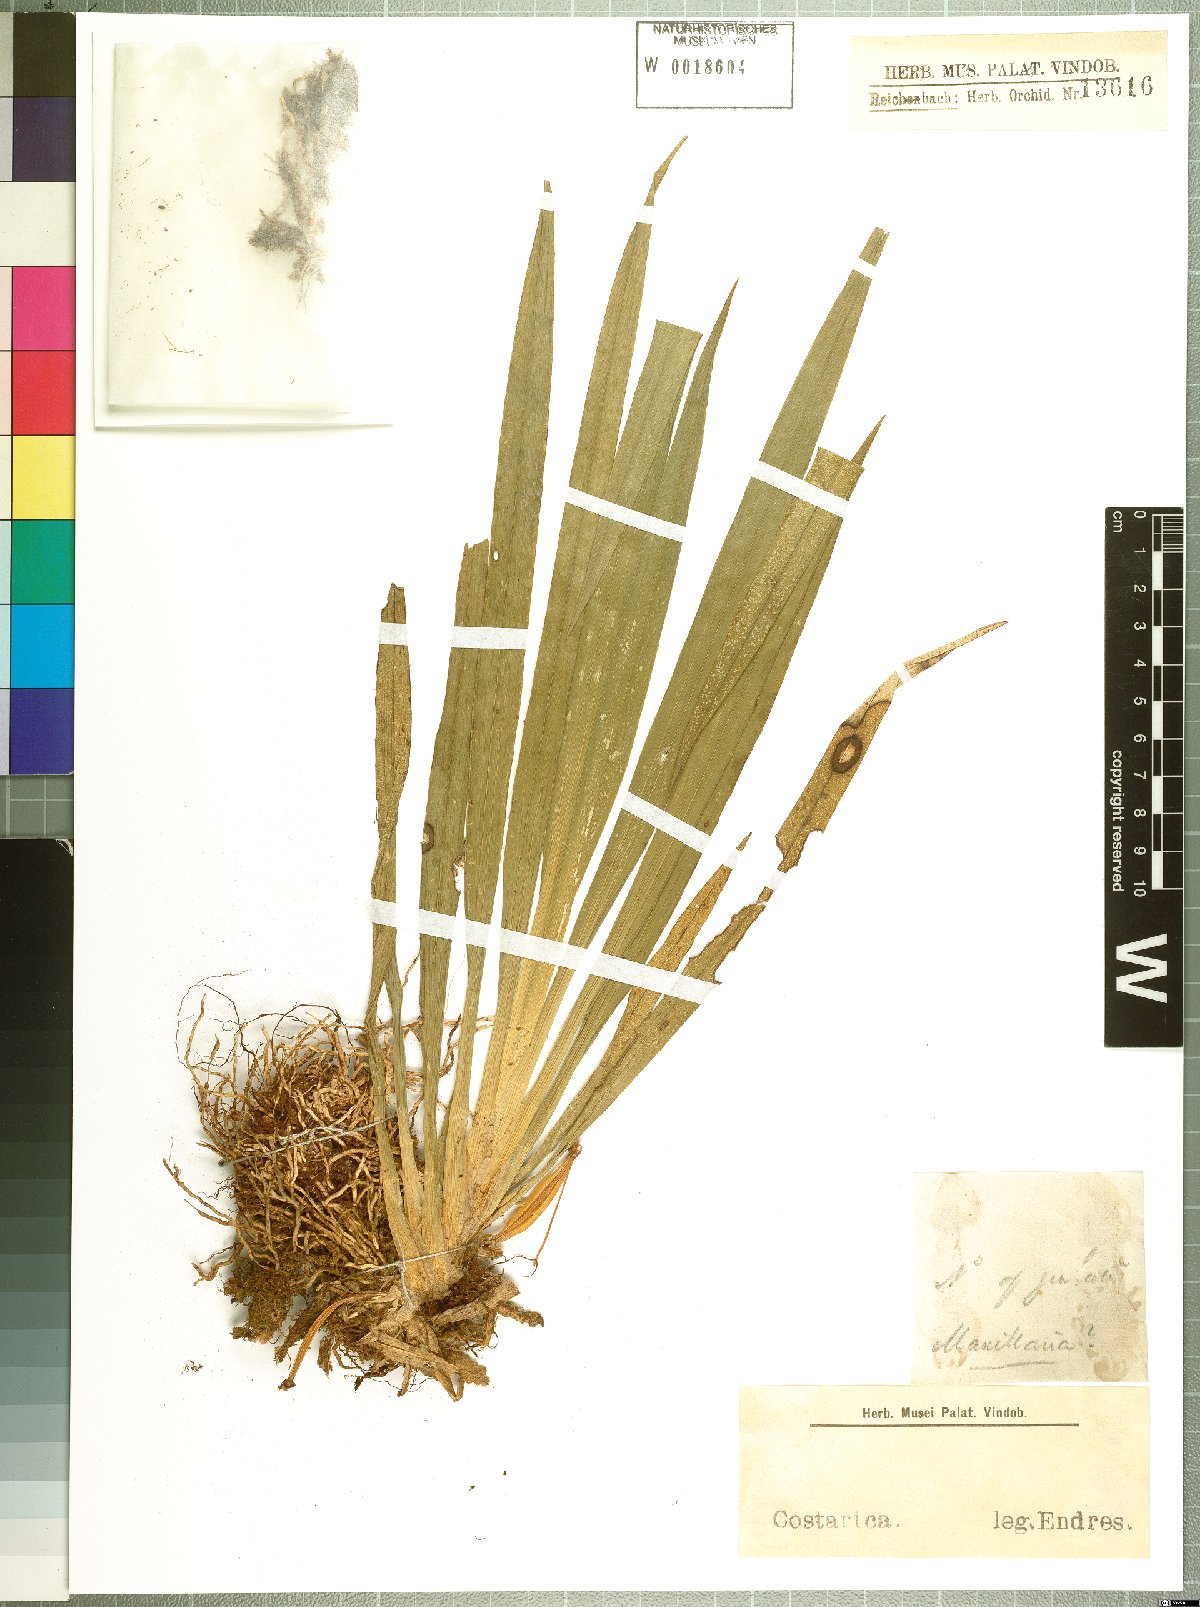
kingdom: Plantae
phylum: Tracheophyta
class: Liliopsida
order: Asparagales
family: Orchidaceae
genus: Maxillaria
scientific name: Maxillaria
